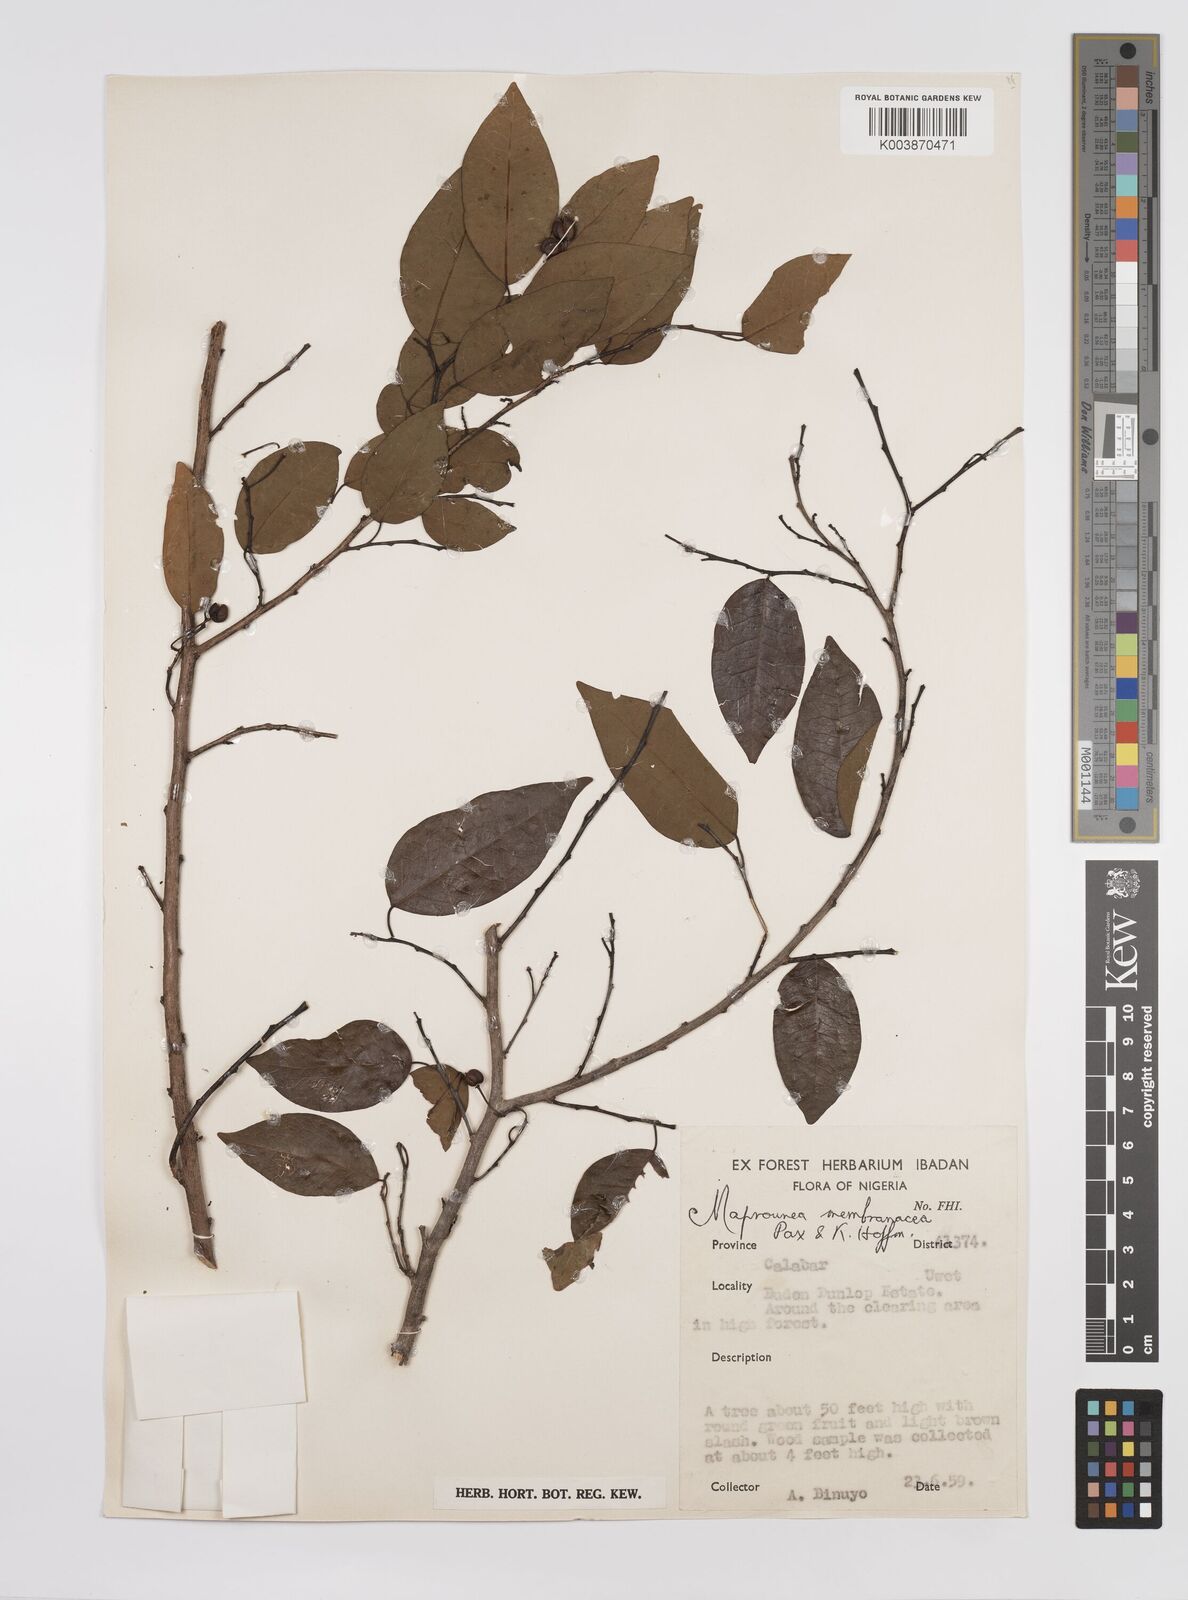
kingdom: Plantae
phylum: Tracheophyta
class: Magnoliopsida
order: Malpighiales
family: Euphorbiaceae
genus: Maprounea
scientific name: Maprounea membranacea
